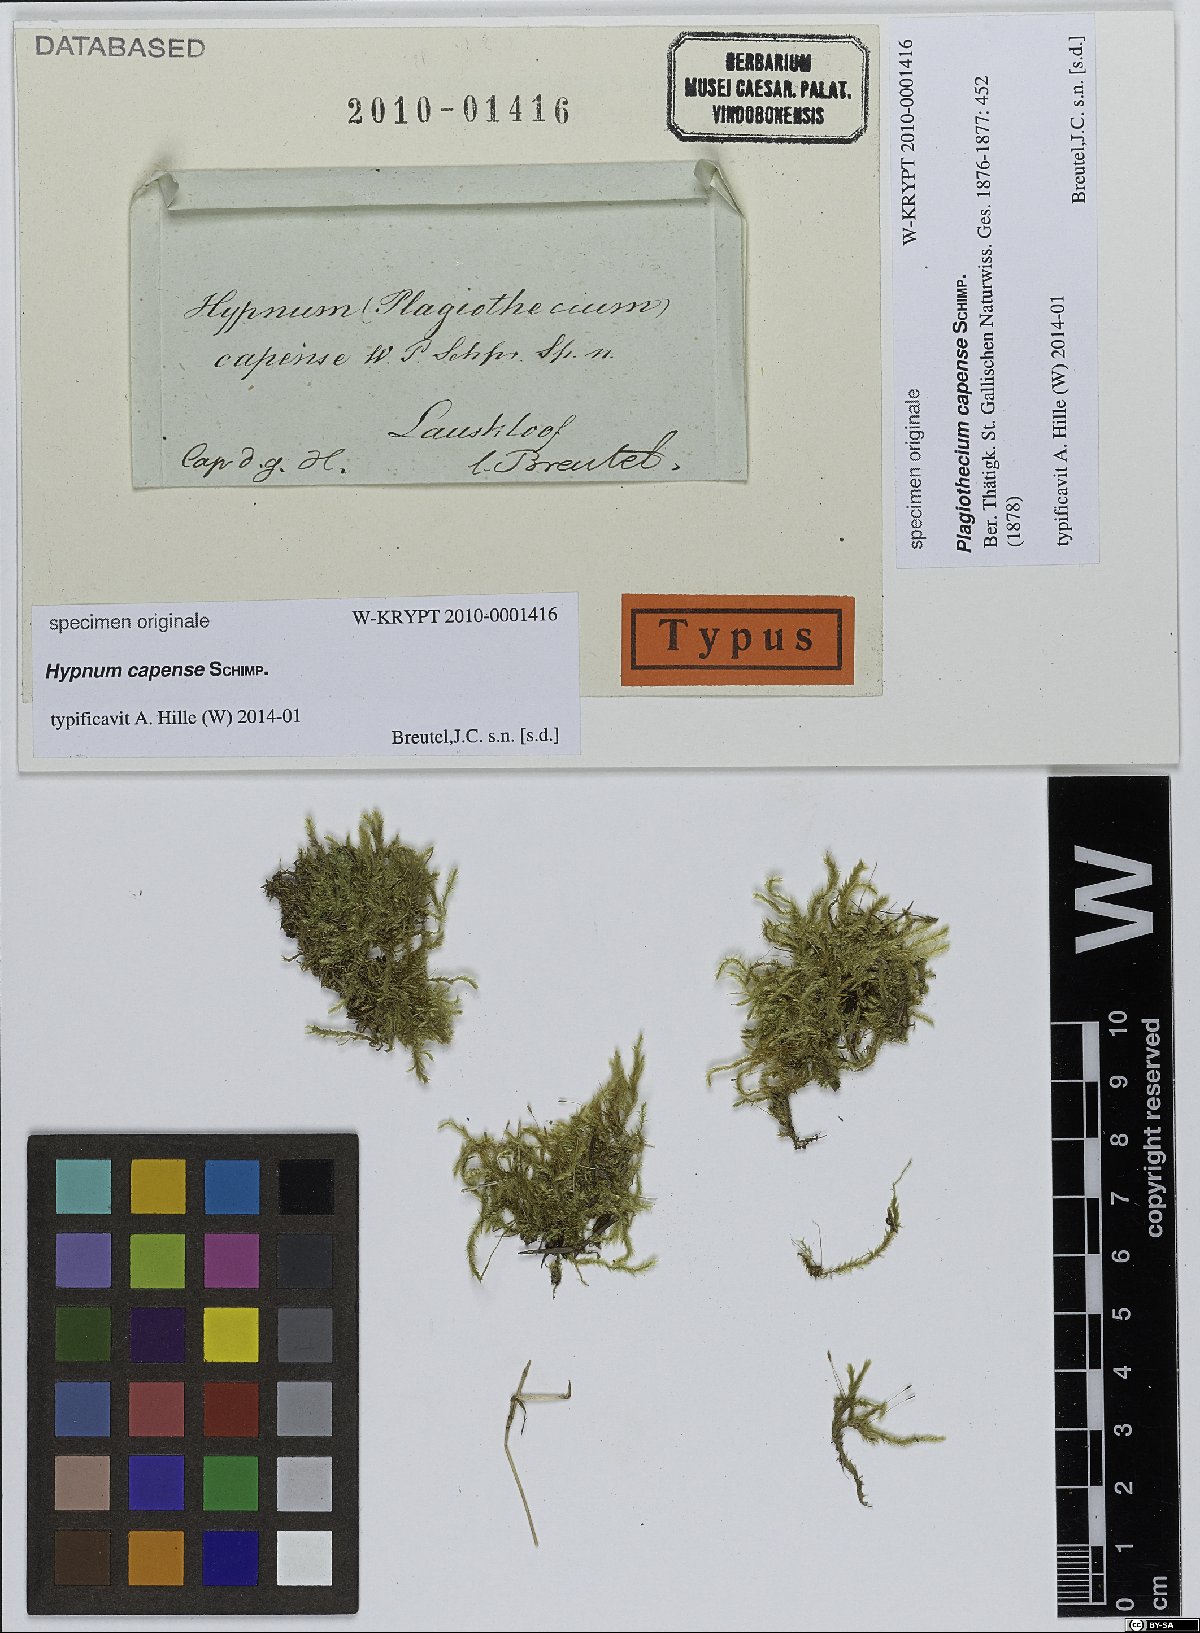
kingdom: Plantae
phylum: Bryophyta
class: Bryopsida
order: Hypnales
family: Plagiotheciaceae
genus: Plagiothecium
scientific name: Plagiothecium
